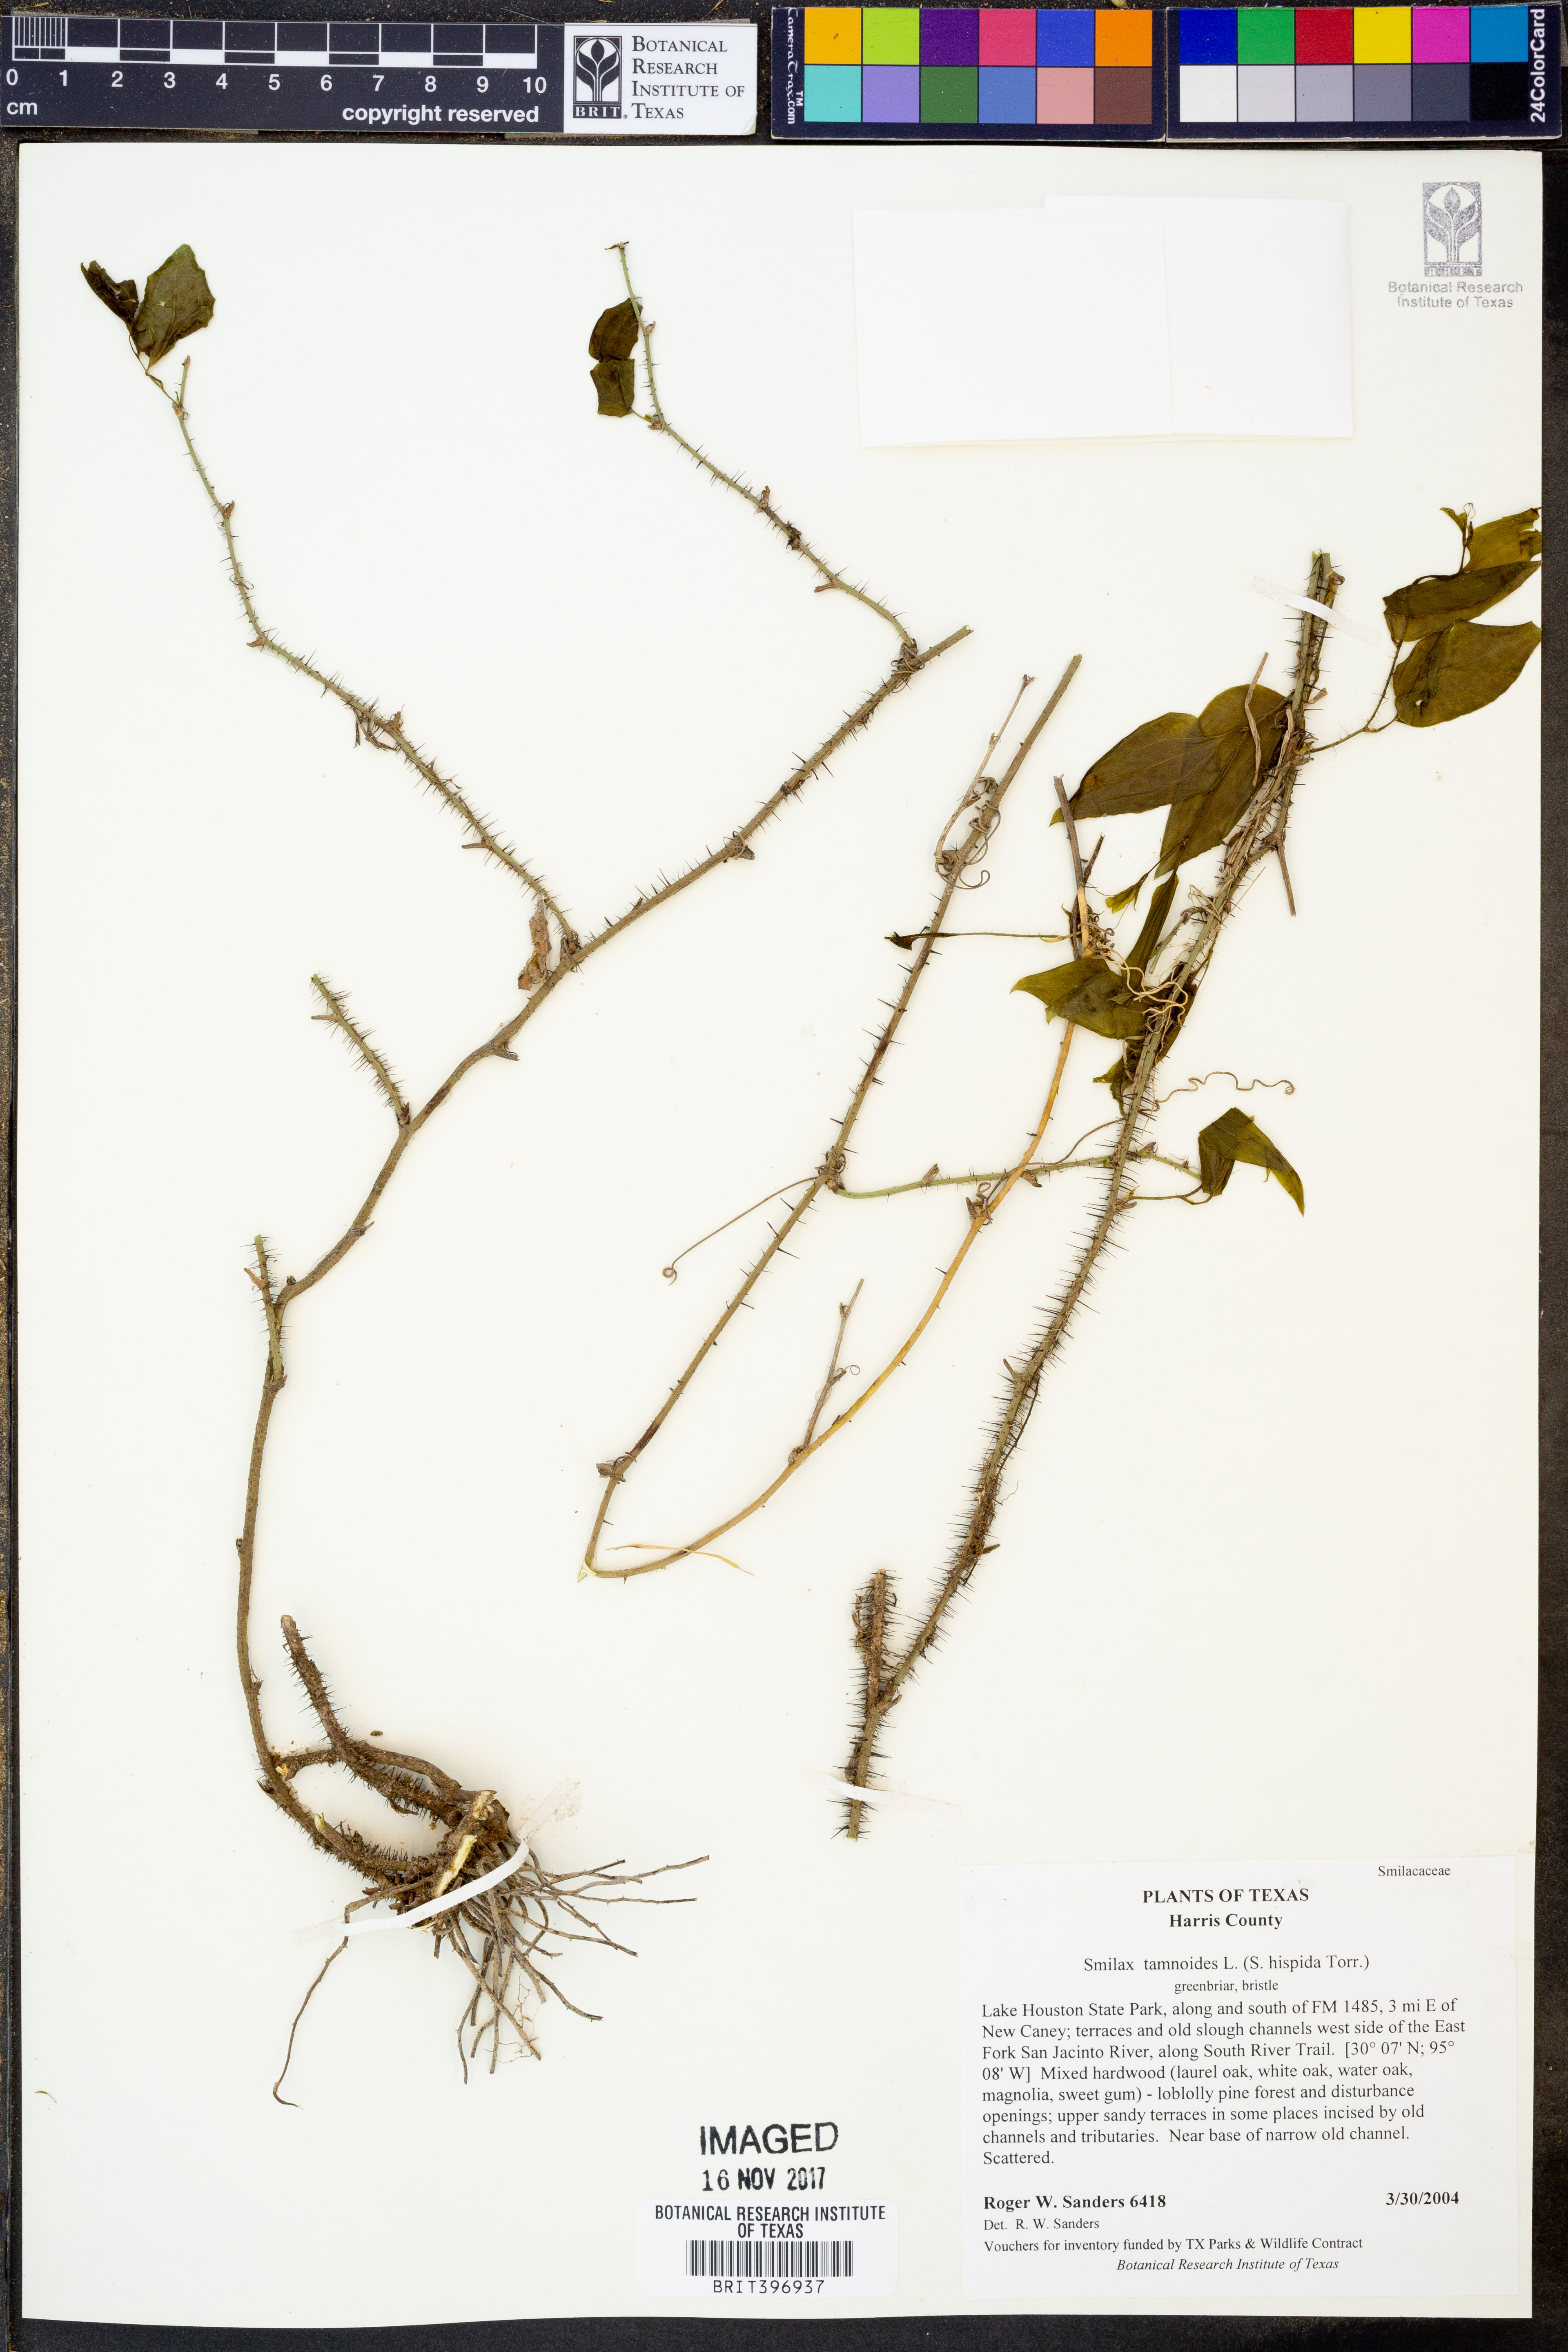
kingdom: Plantae
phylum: Tracheophyta
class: Liliopsida
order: Liliales
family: Smilacaceae
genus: Smilax
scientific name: Smilax tamnoides
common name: Hellfetter
